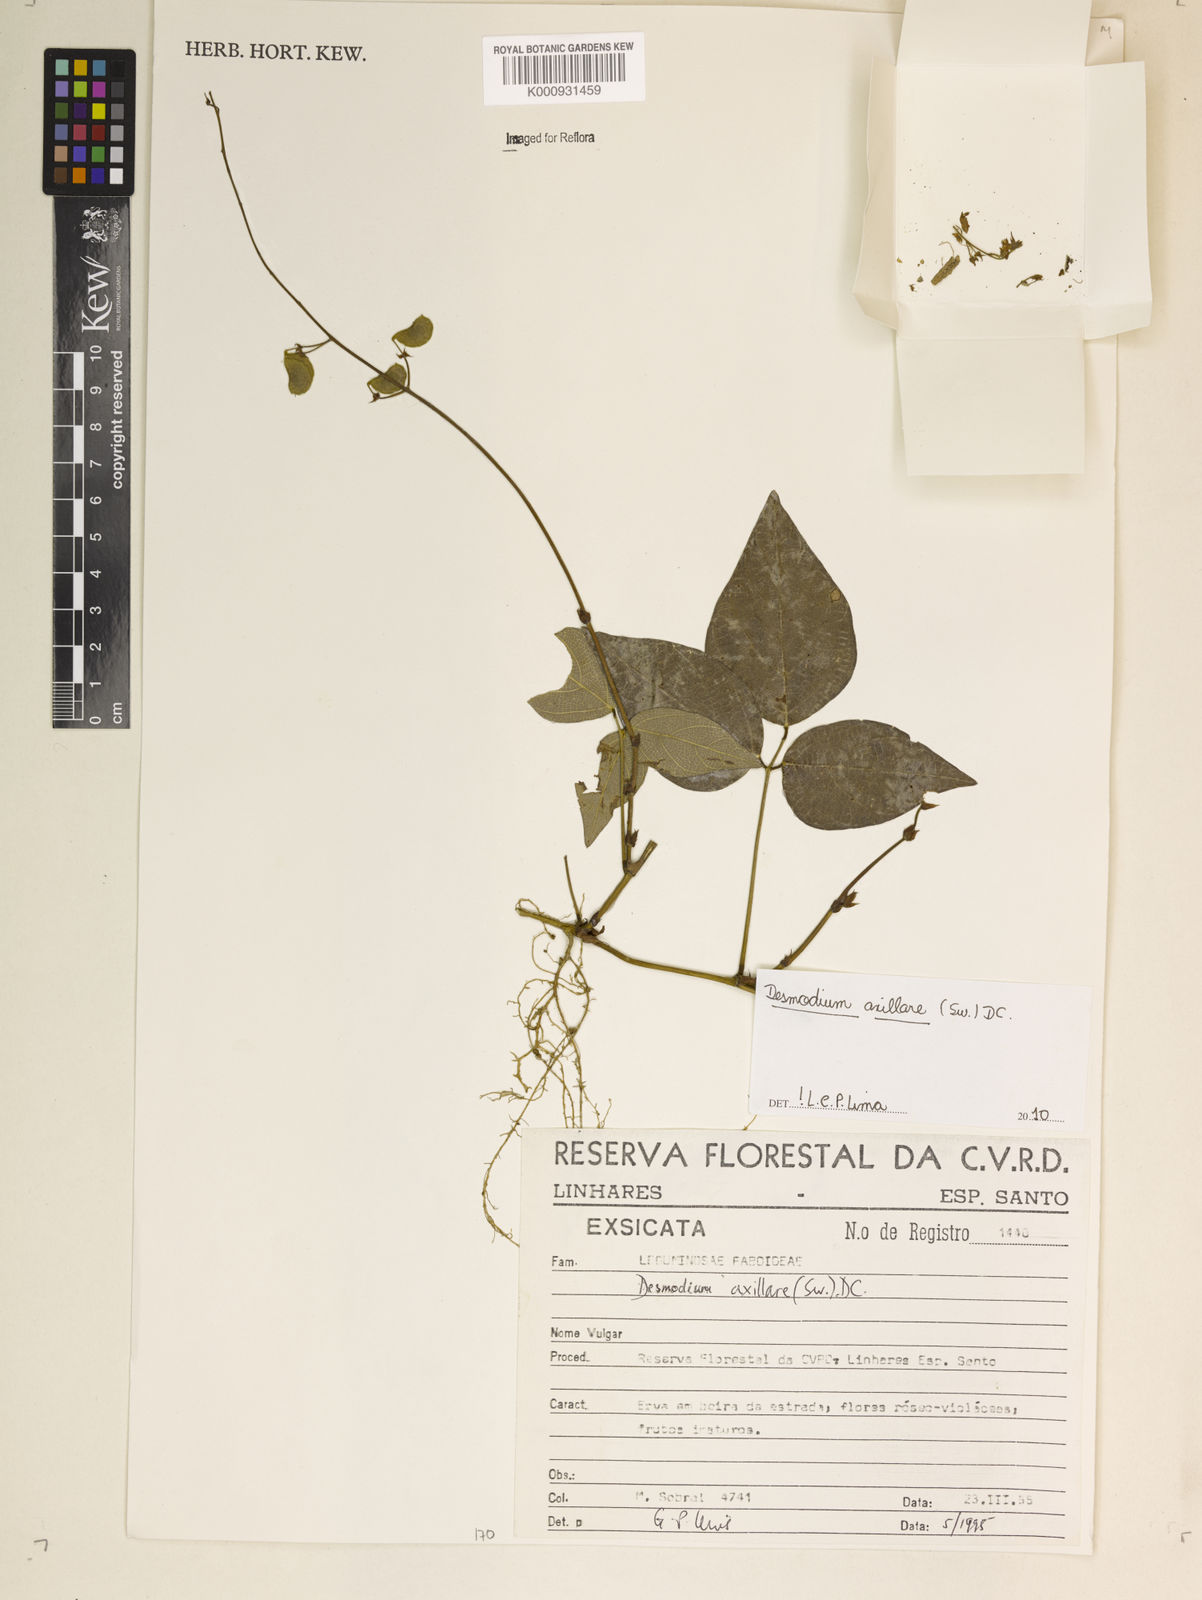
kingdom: Plantae
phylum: Tracheophyta
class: Magnoliopsida
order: Fabales
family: Fabaceae
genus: Desmodium
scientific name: Desmodium axillare
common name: Wire with
